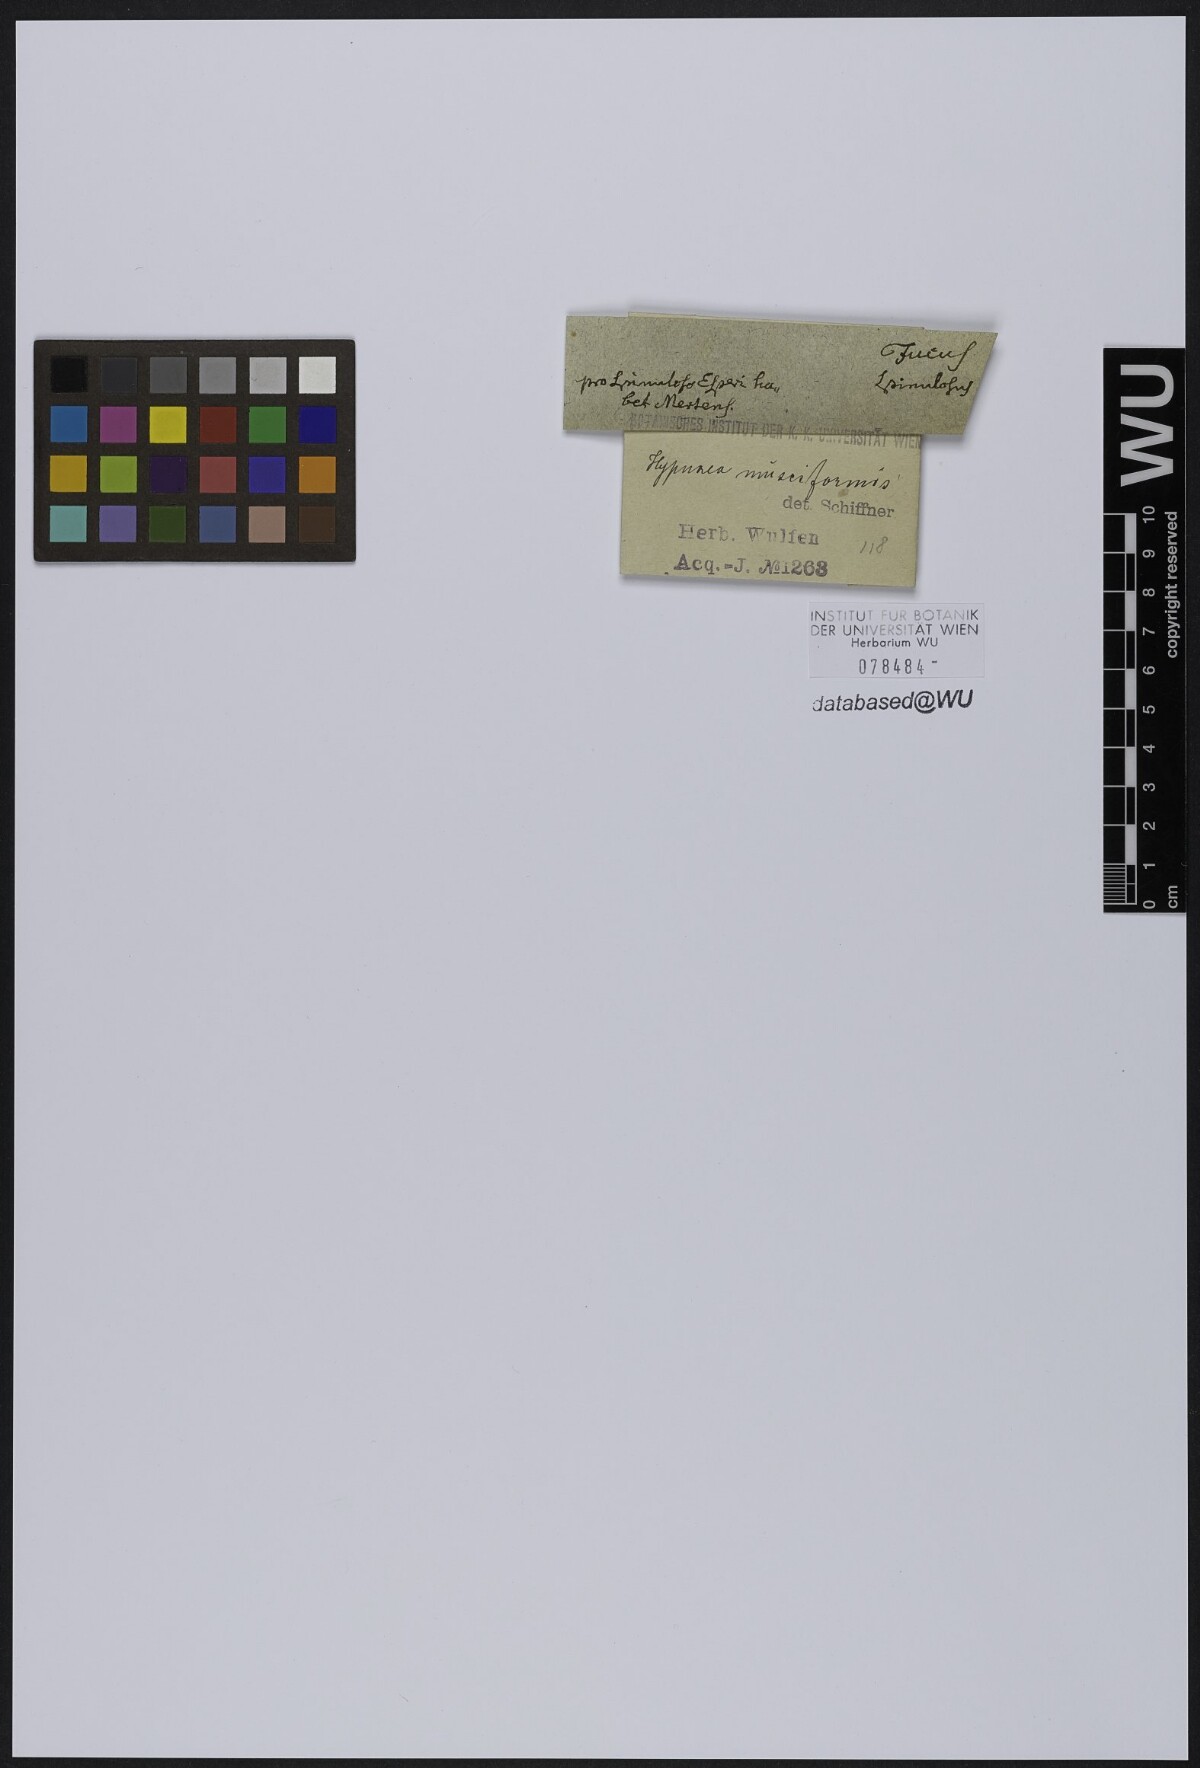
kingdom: Plantae
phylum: Rhodophyta
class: Florideophyceae
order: Gigartinales
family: Cystocloniaceae
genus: Hypnea
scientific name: Hypnea musciformis
